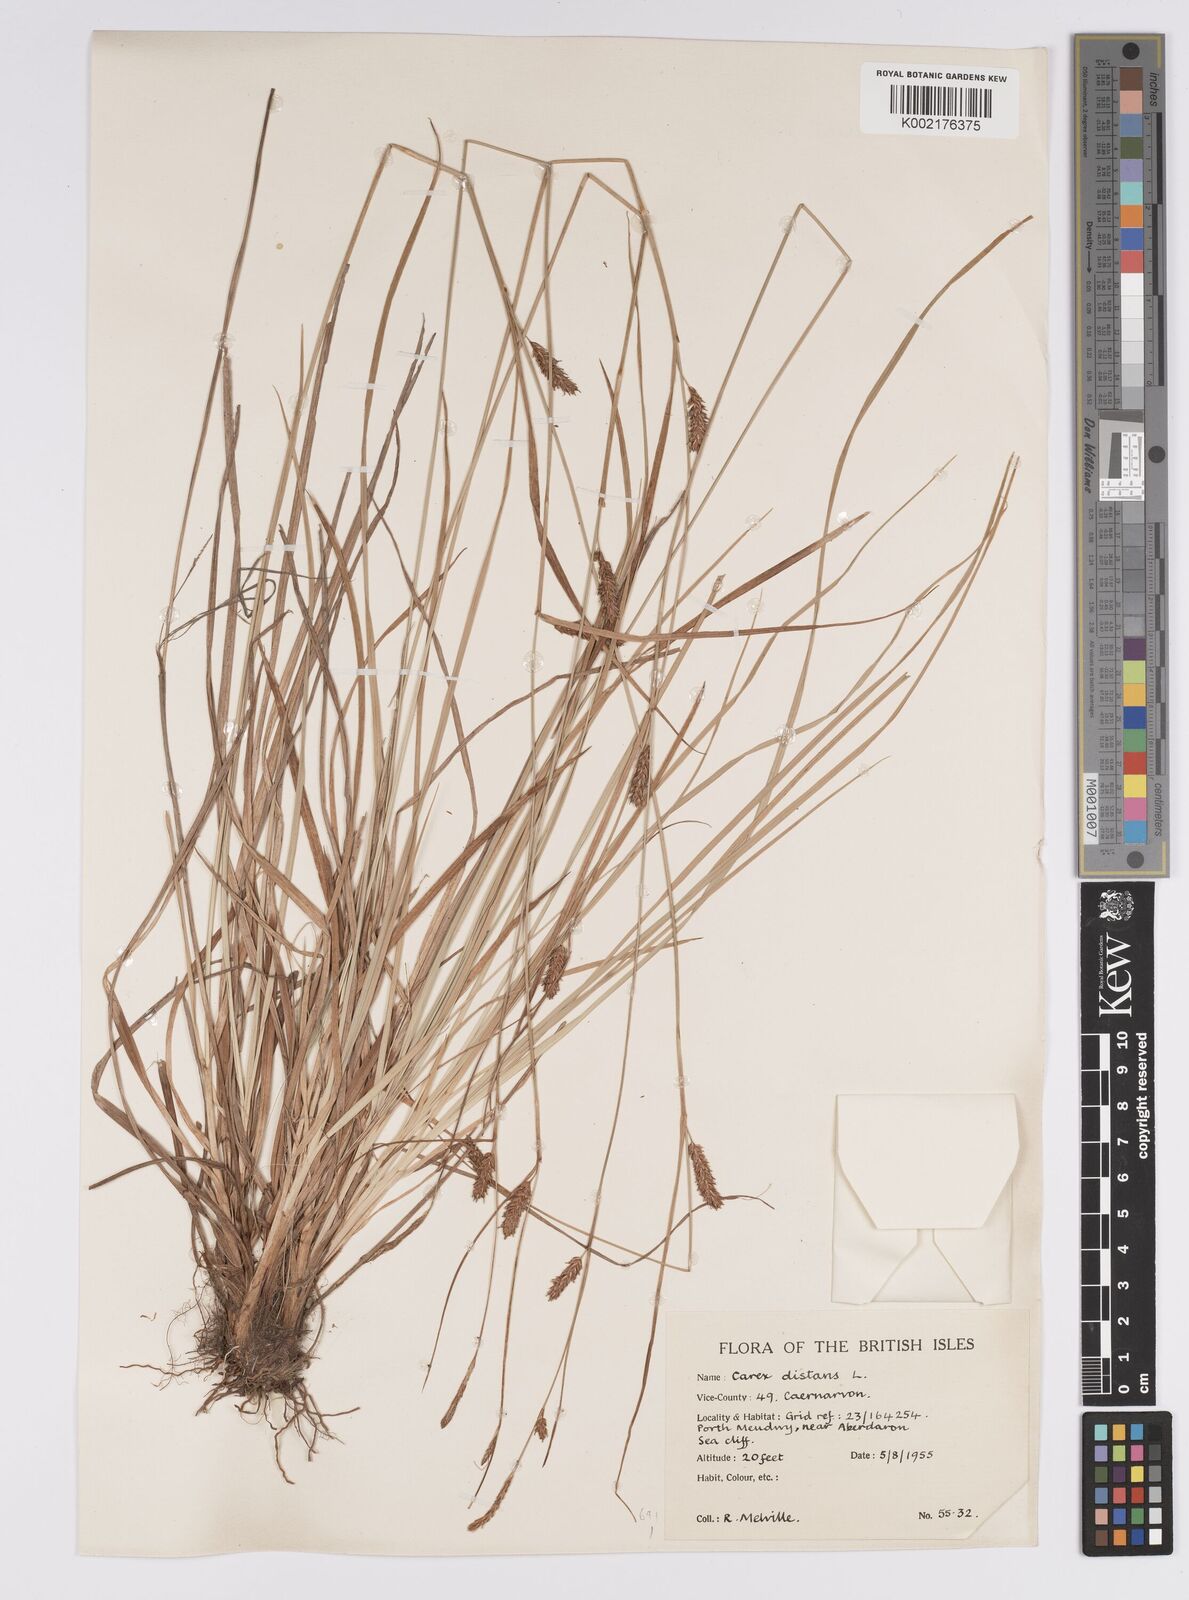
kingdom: Plantae
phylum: Tracheophyta
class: Liliopsida
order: Poales
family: Cyperaceae
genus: Carex
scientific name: Carex distans
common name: Distant sedge
